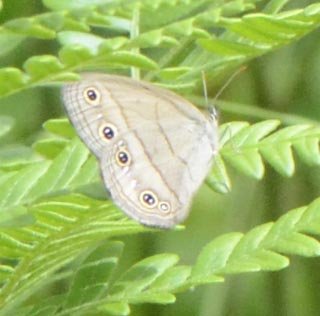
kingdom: Animalia
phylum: Arthropoda
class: Insecta
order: Lepidoptera
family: Nymphalidae
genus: Euptychia
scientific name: Euptychia cymela
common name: Little Wood Satyr
